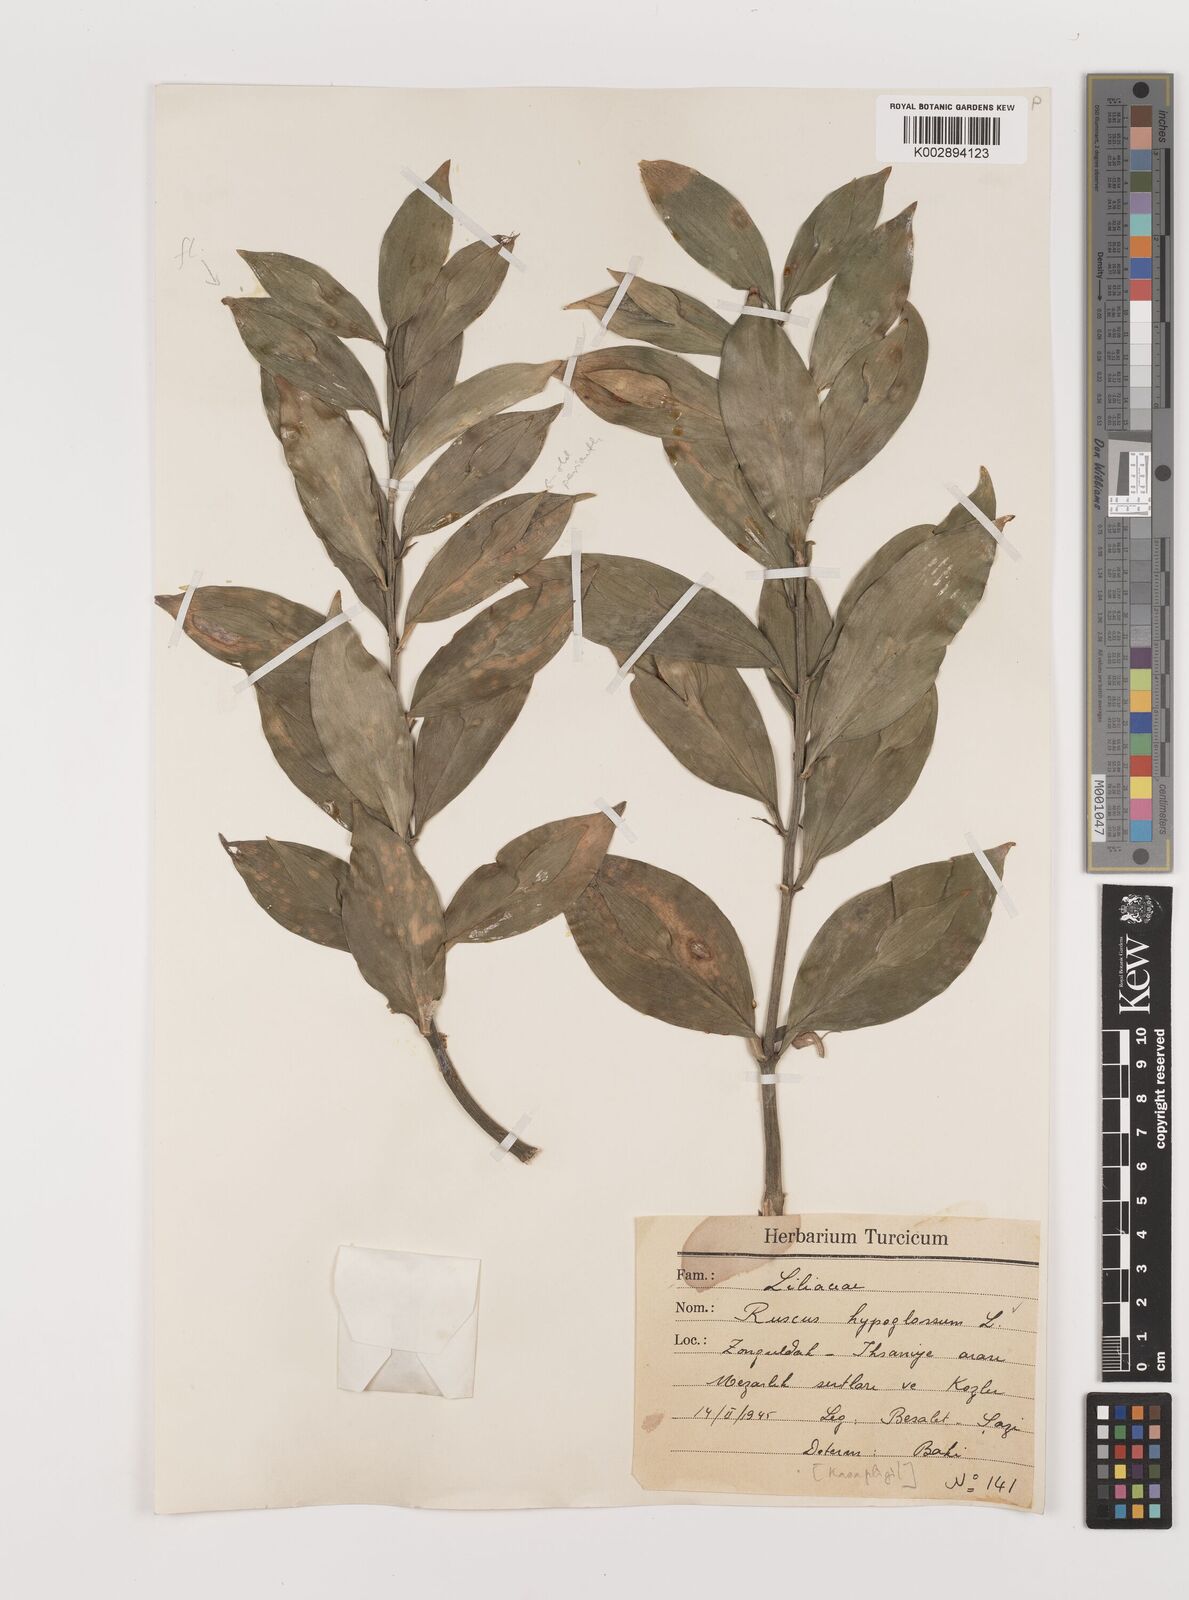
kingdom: Plantae
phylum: Tracheophyta
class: Liliopsida
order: Asparagales
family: Asparagaceae
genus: Ruscus
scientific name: Ruscus hypoglossum
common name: Spineless butcher's-broom
